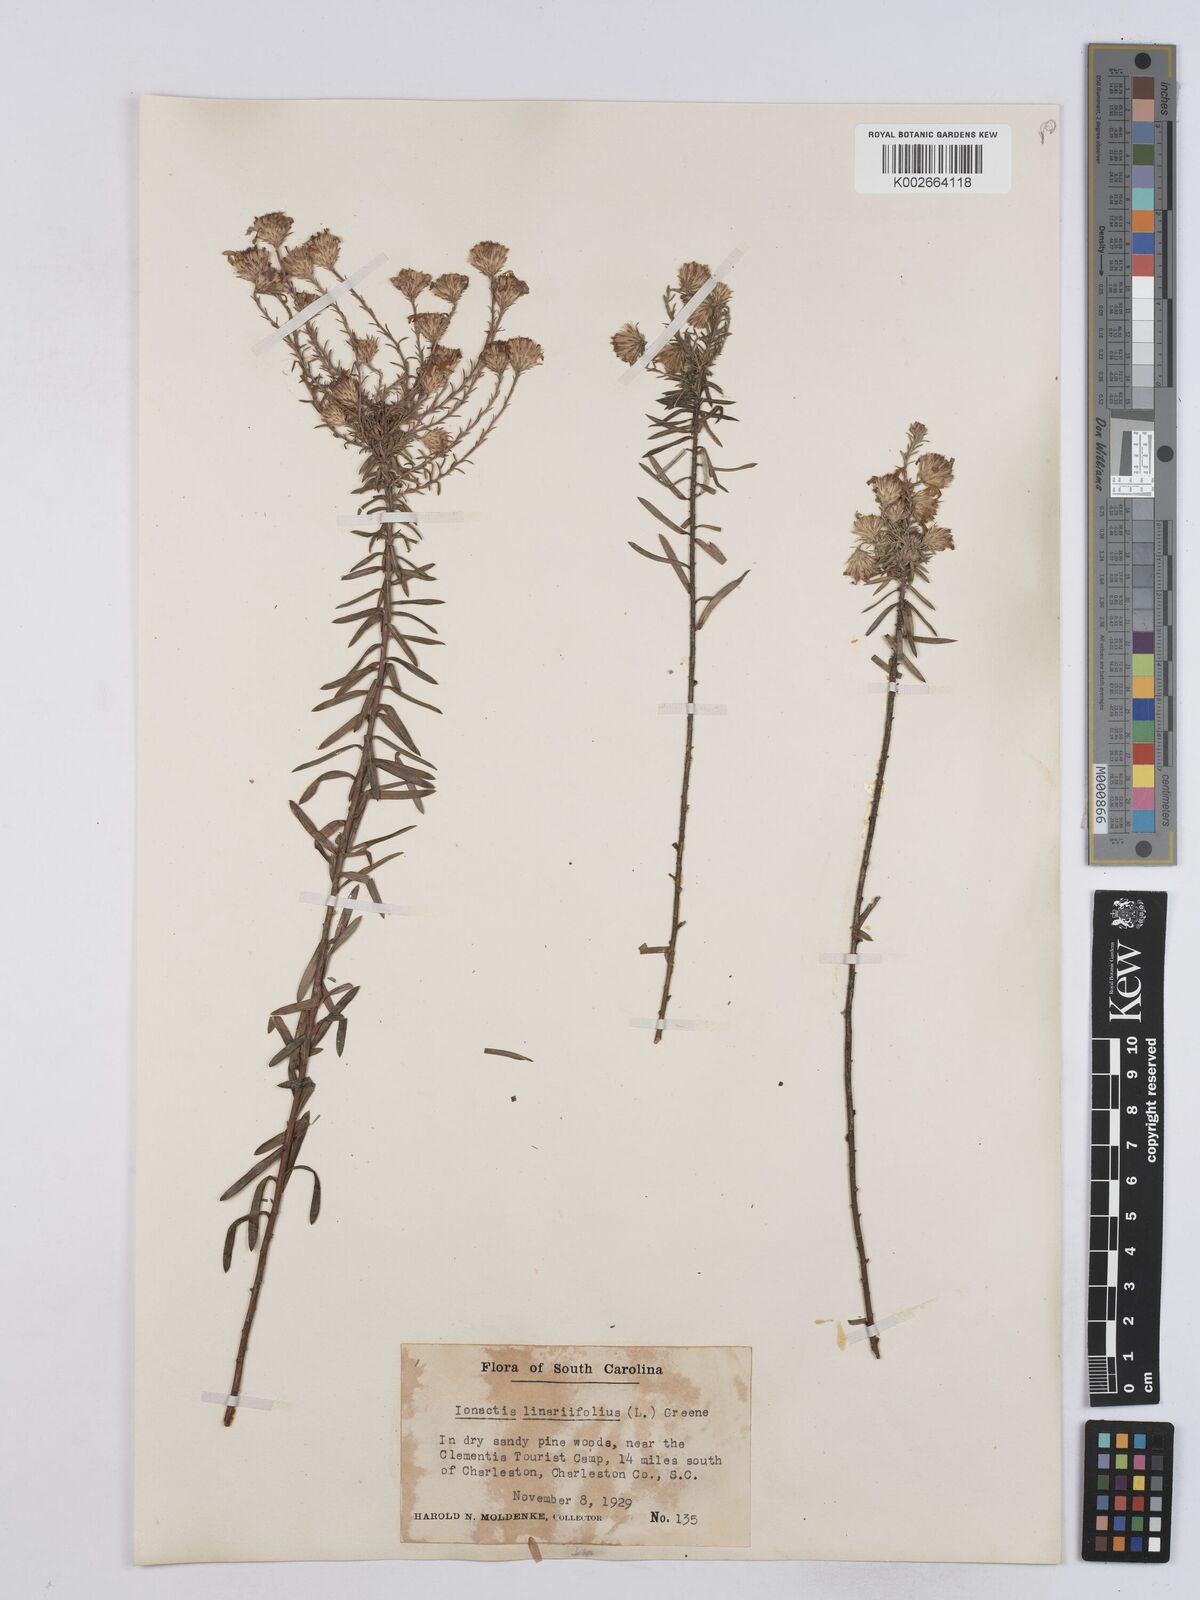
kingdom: Plantae
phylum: Tracheophyta
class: Magnoliopsida
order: Asterales
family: Asteraceae
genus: Ionactis
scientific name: Ionactis linariifolia
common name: Flax-leaf aster
